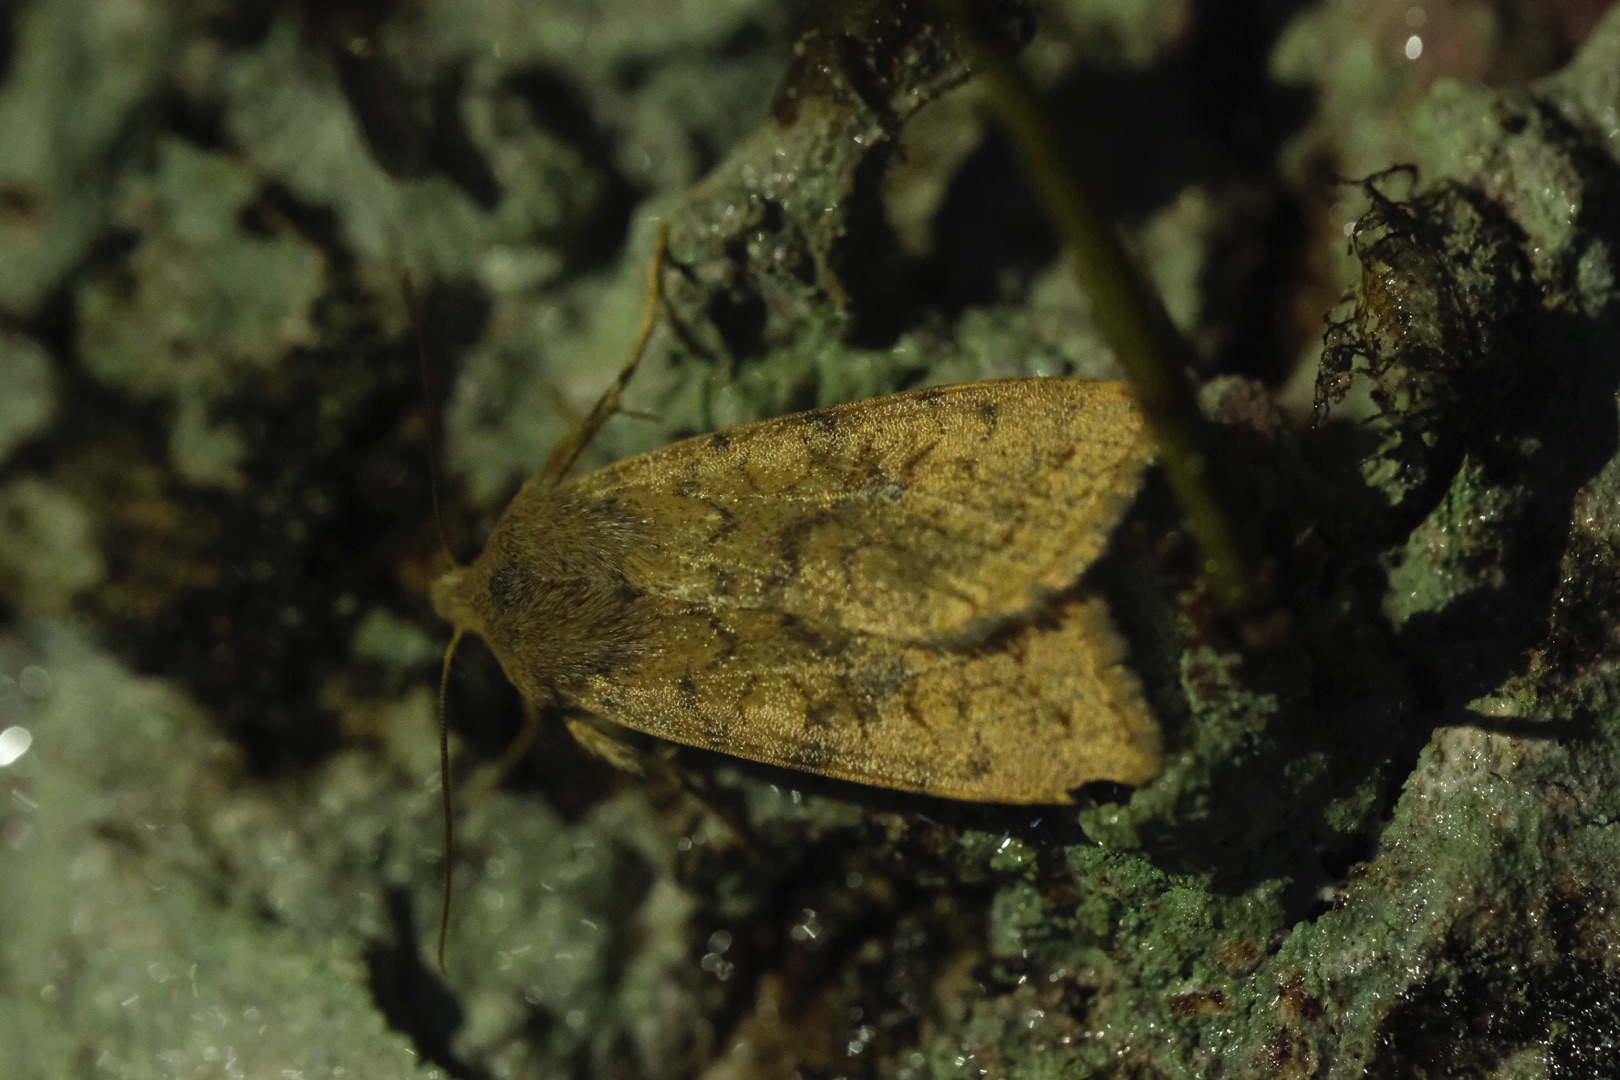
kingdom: Animalia
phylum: Arthropoda
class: Insecta
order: Lepidoptera
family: Noctuidae
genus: Sunira
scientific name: Sunira circellaris
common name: Cirkel-jordfarveugle
